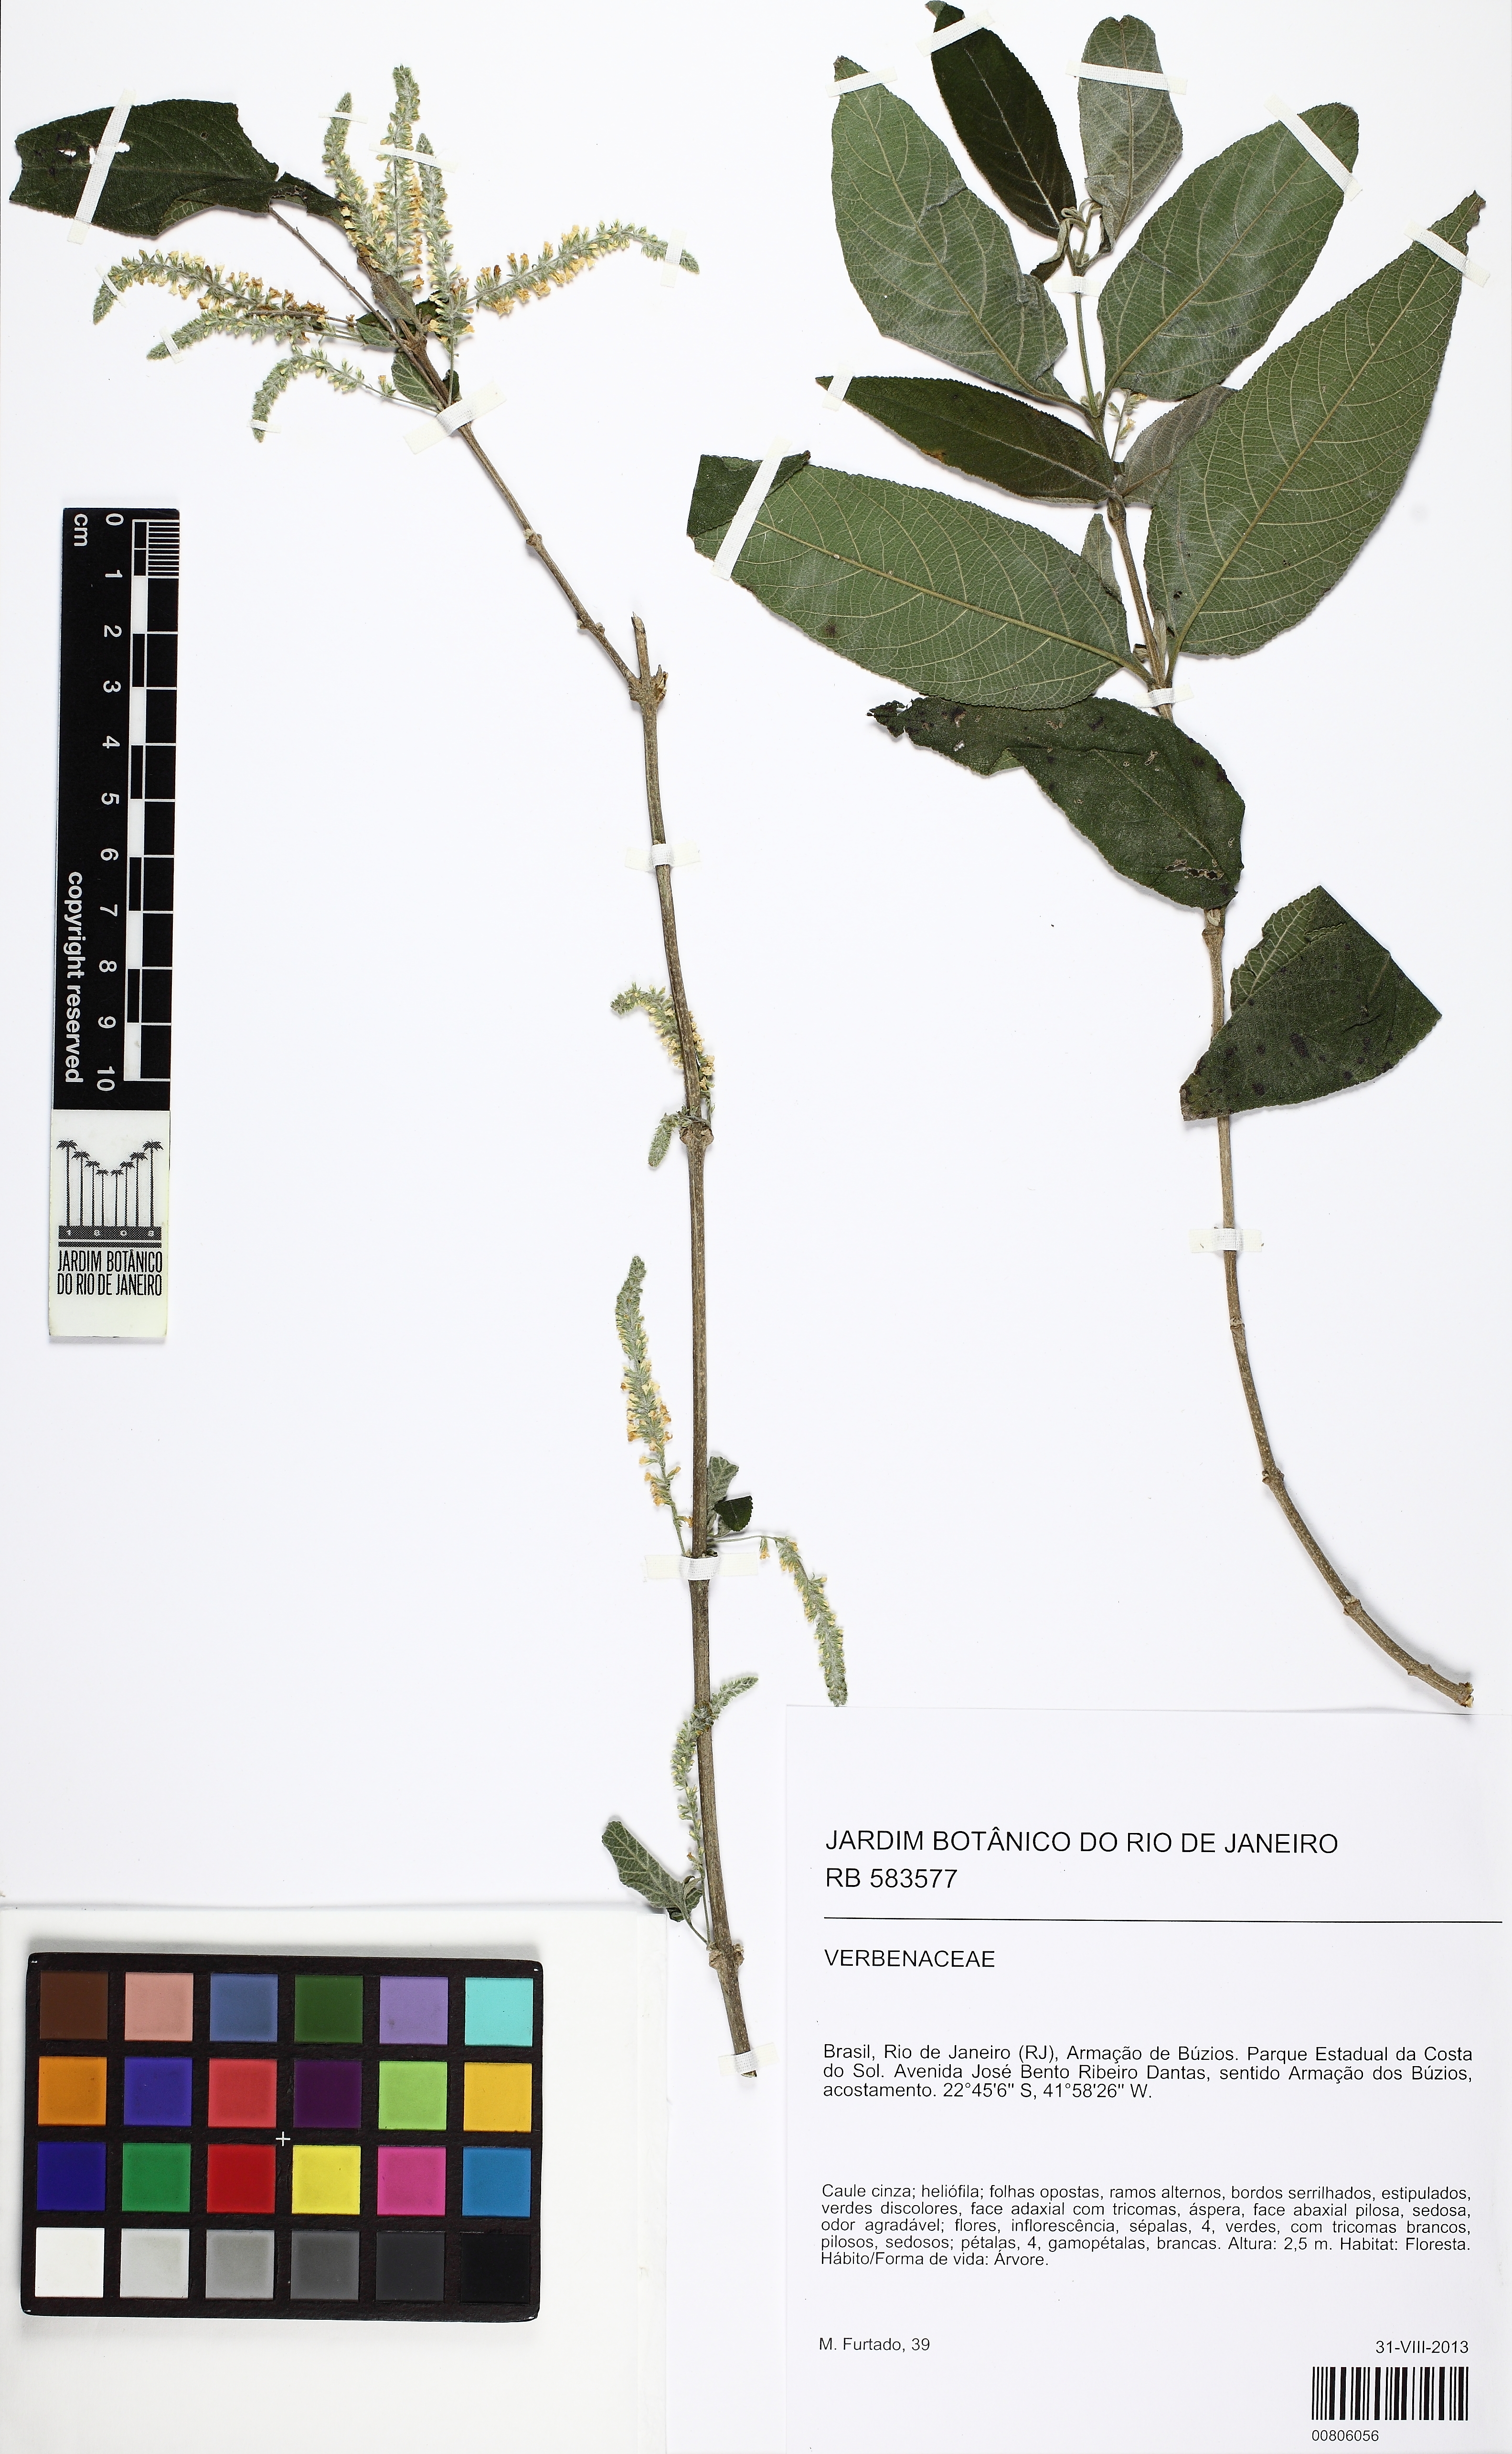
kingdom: Plantae
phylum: Tracheophyta
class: Magnoliopsida
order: Lamiales
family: Verbenaceae
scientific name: Verbenaceae
